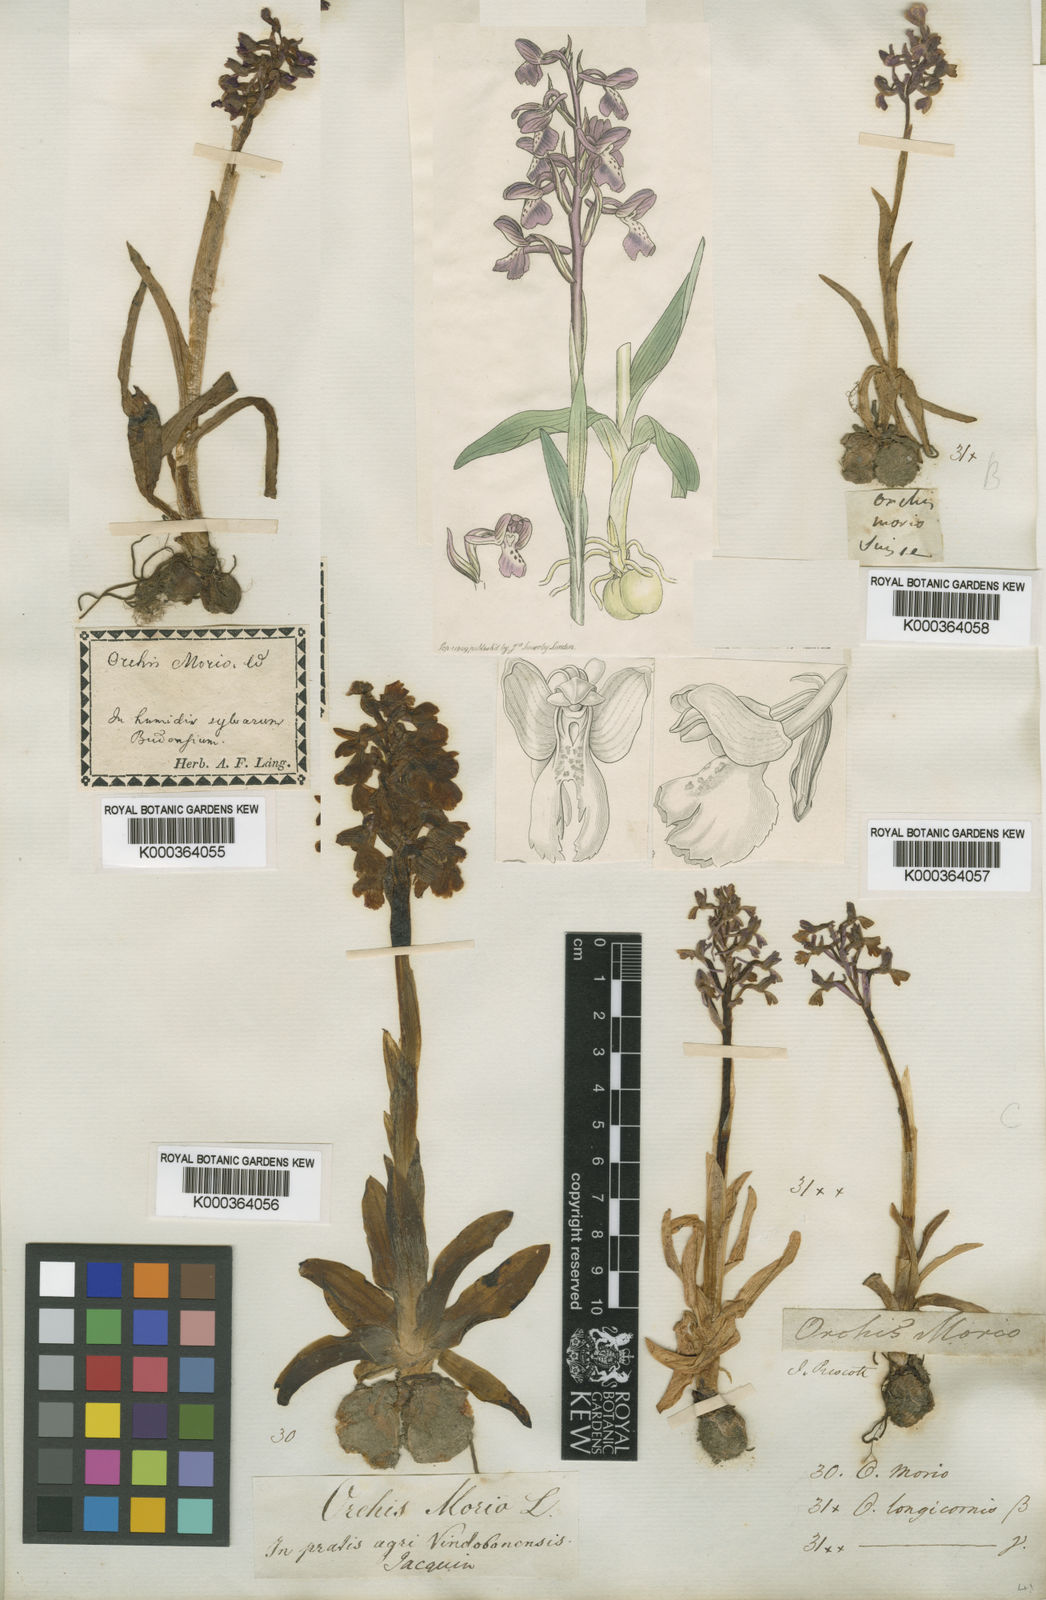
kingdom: Plantae
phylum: Tracheophyta
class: Liliopsida
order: Asparagales
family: Orchidaceae
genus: Anacamptis
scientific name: Anacamptis
